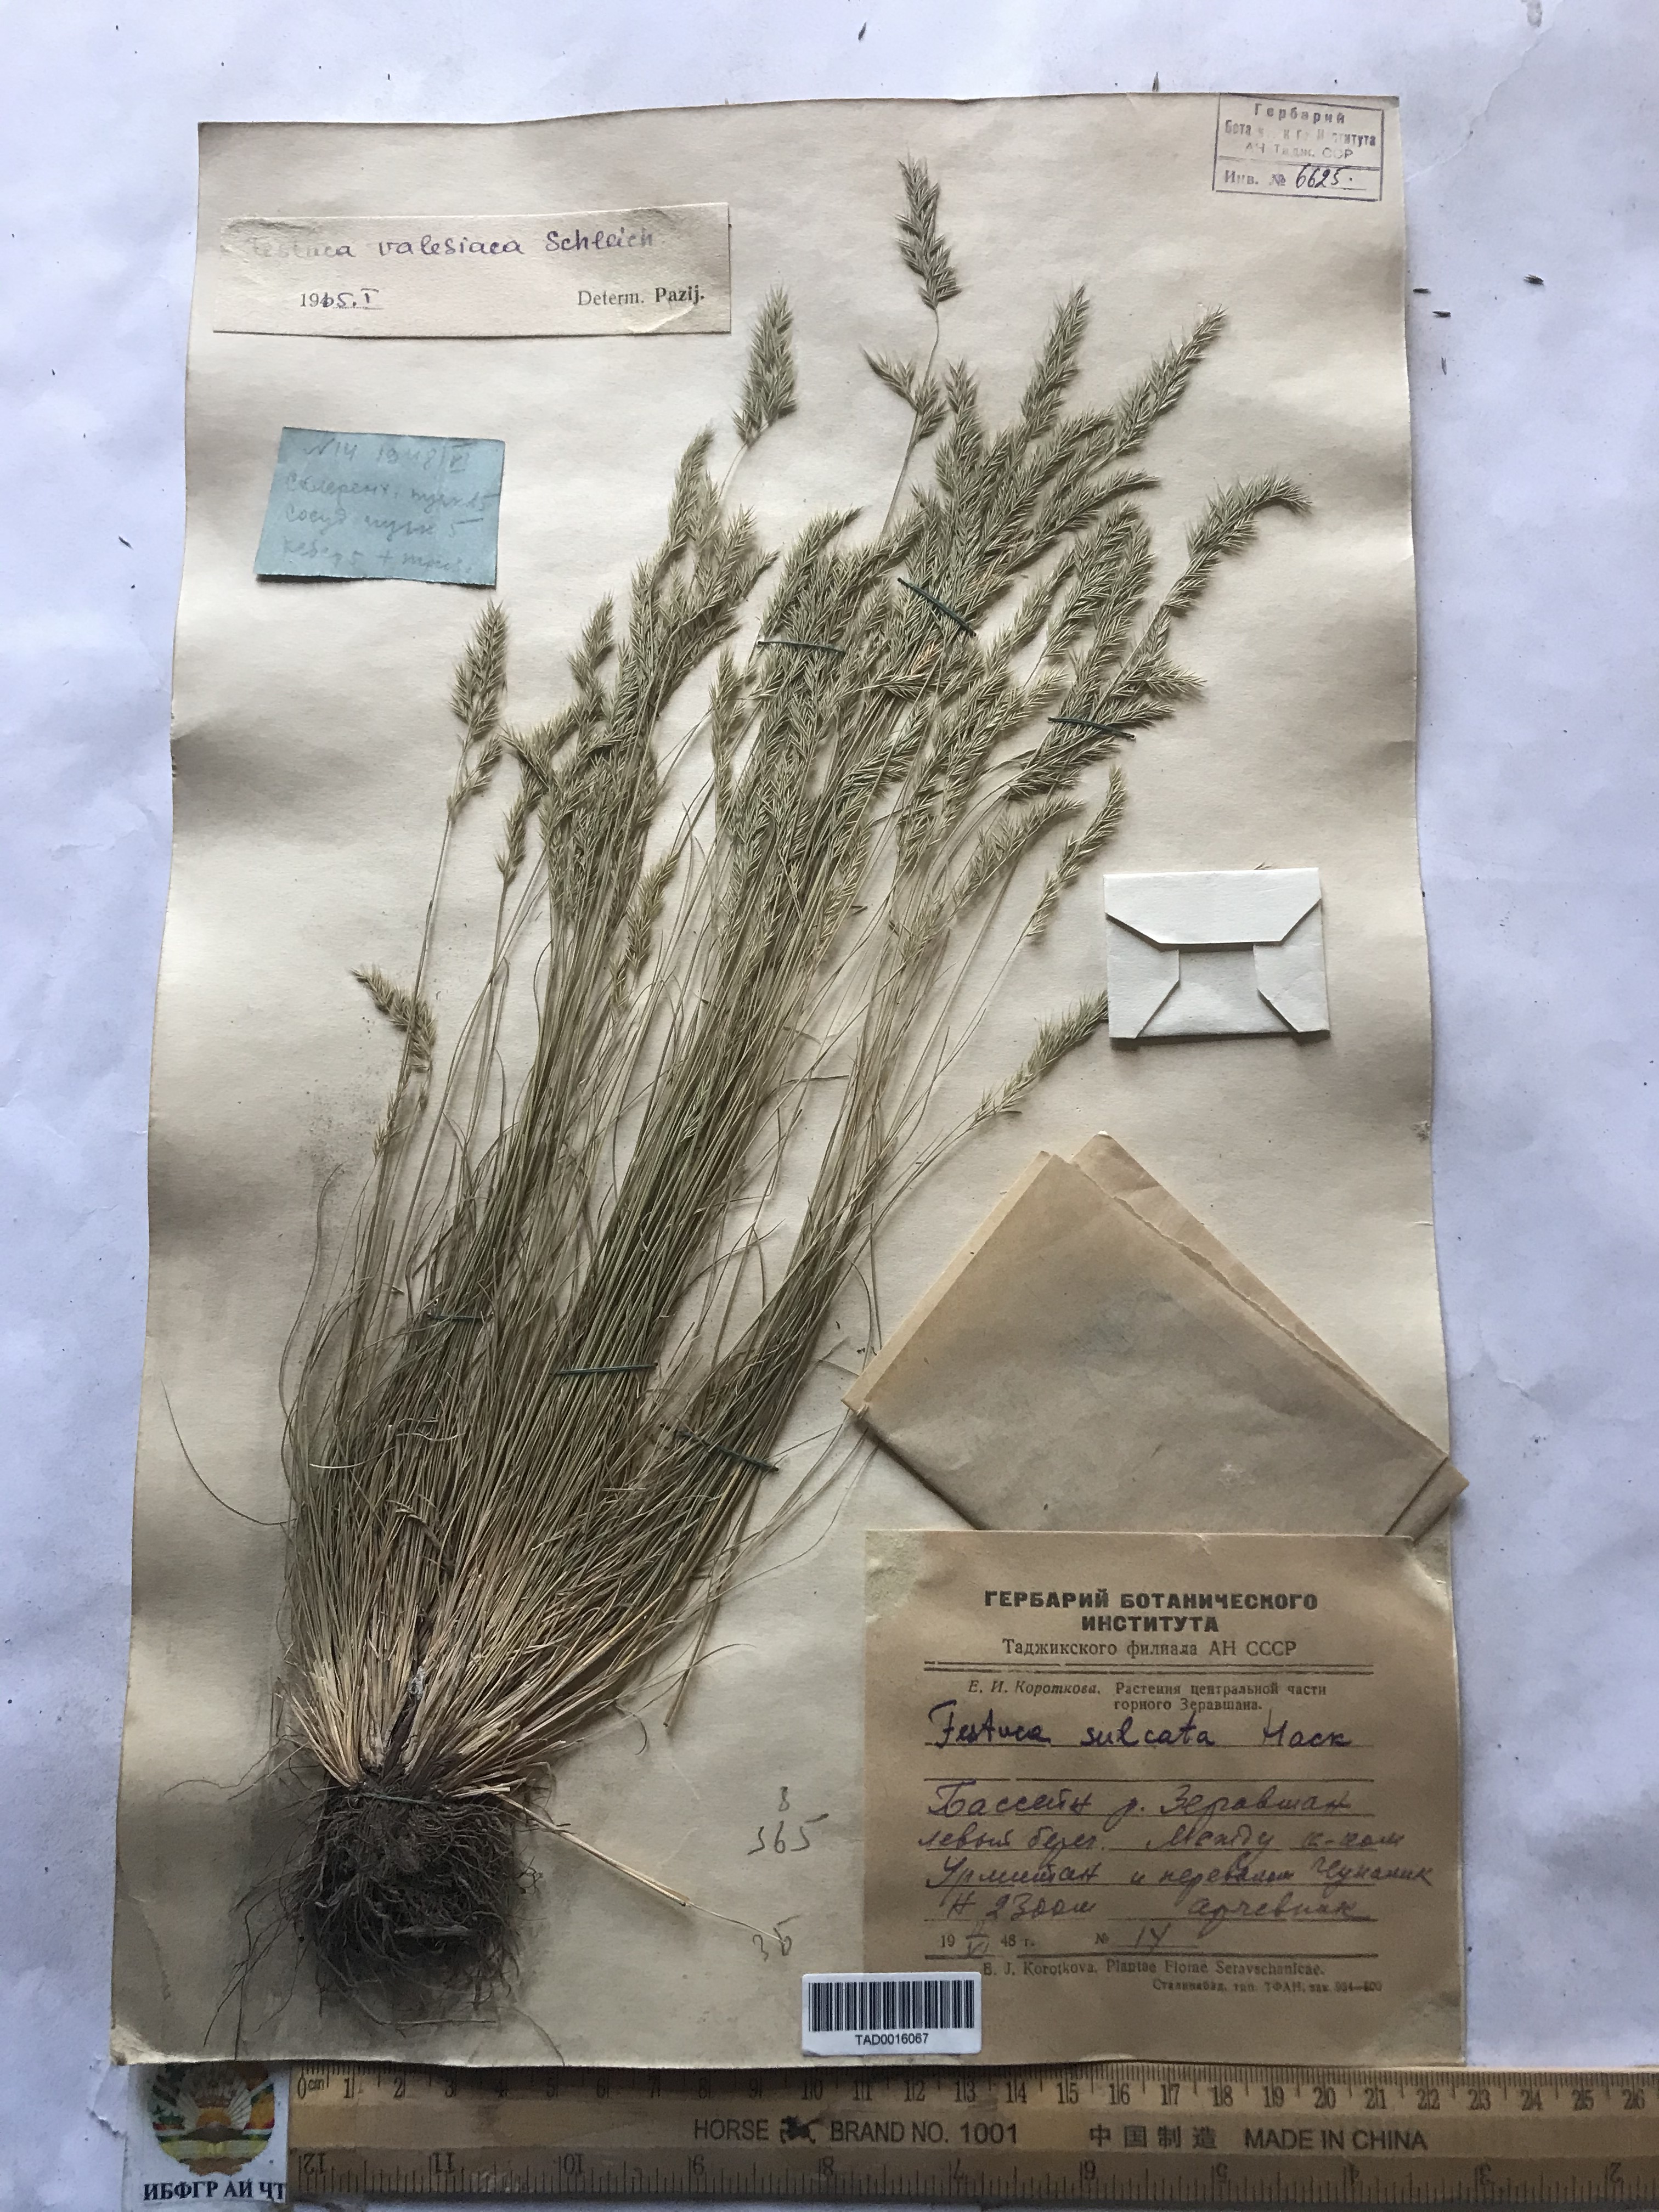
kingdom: Plantae
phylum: Tracheophyta
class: Liliopsida
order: Poales
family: Poaceae
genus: Festuca
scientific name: Festuca valesiaca
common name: Volga fescue
